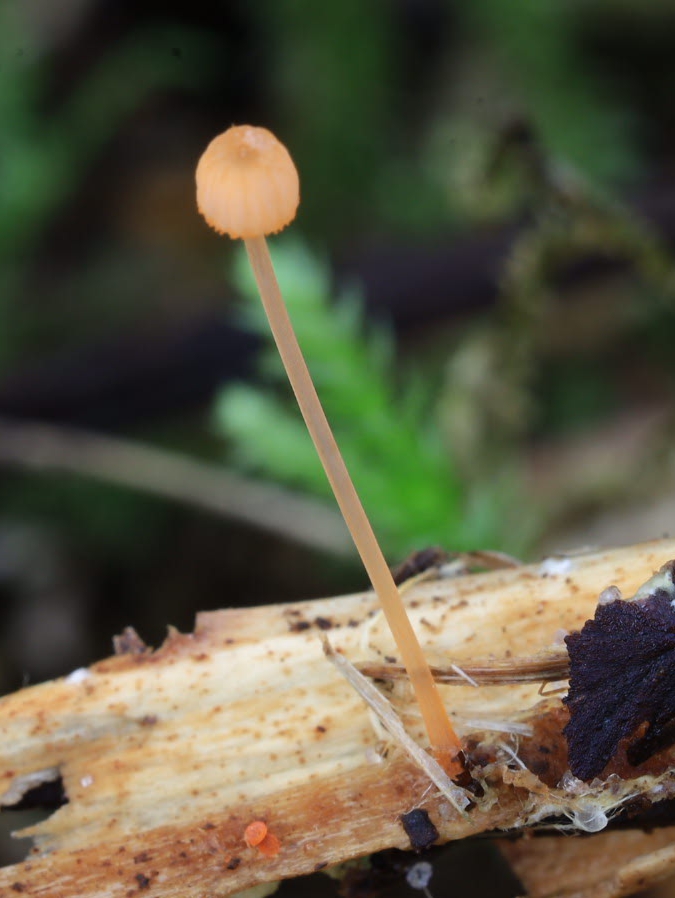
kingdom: Fungi
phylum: Basidiomycota
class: Agaricomycetes
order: Agaricales
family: Mycenaceae
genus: Mycena
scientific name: Mycena pterigena
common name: bregne-huesvamp
